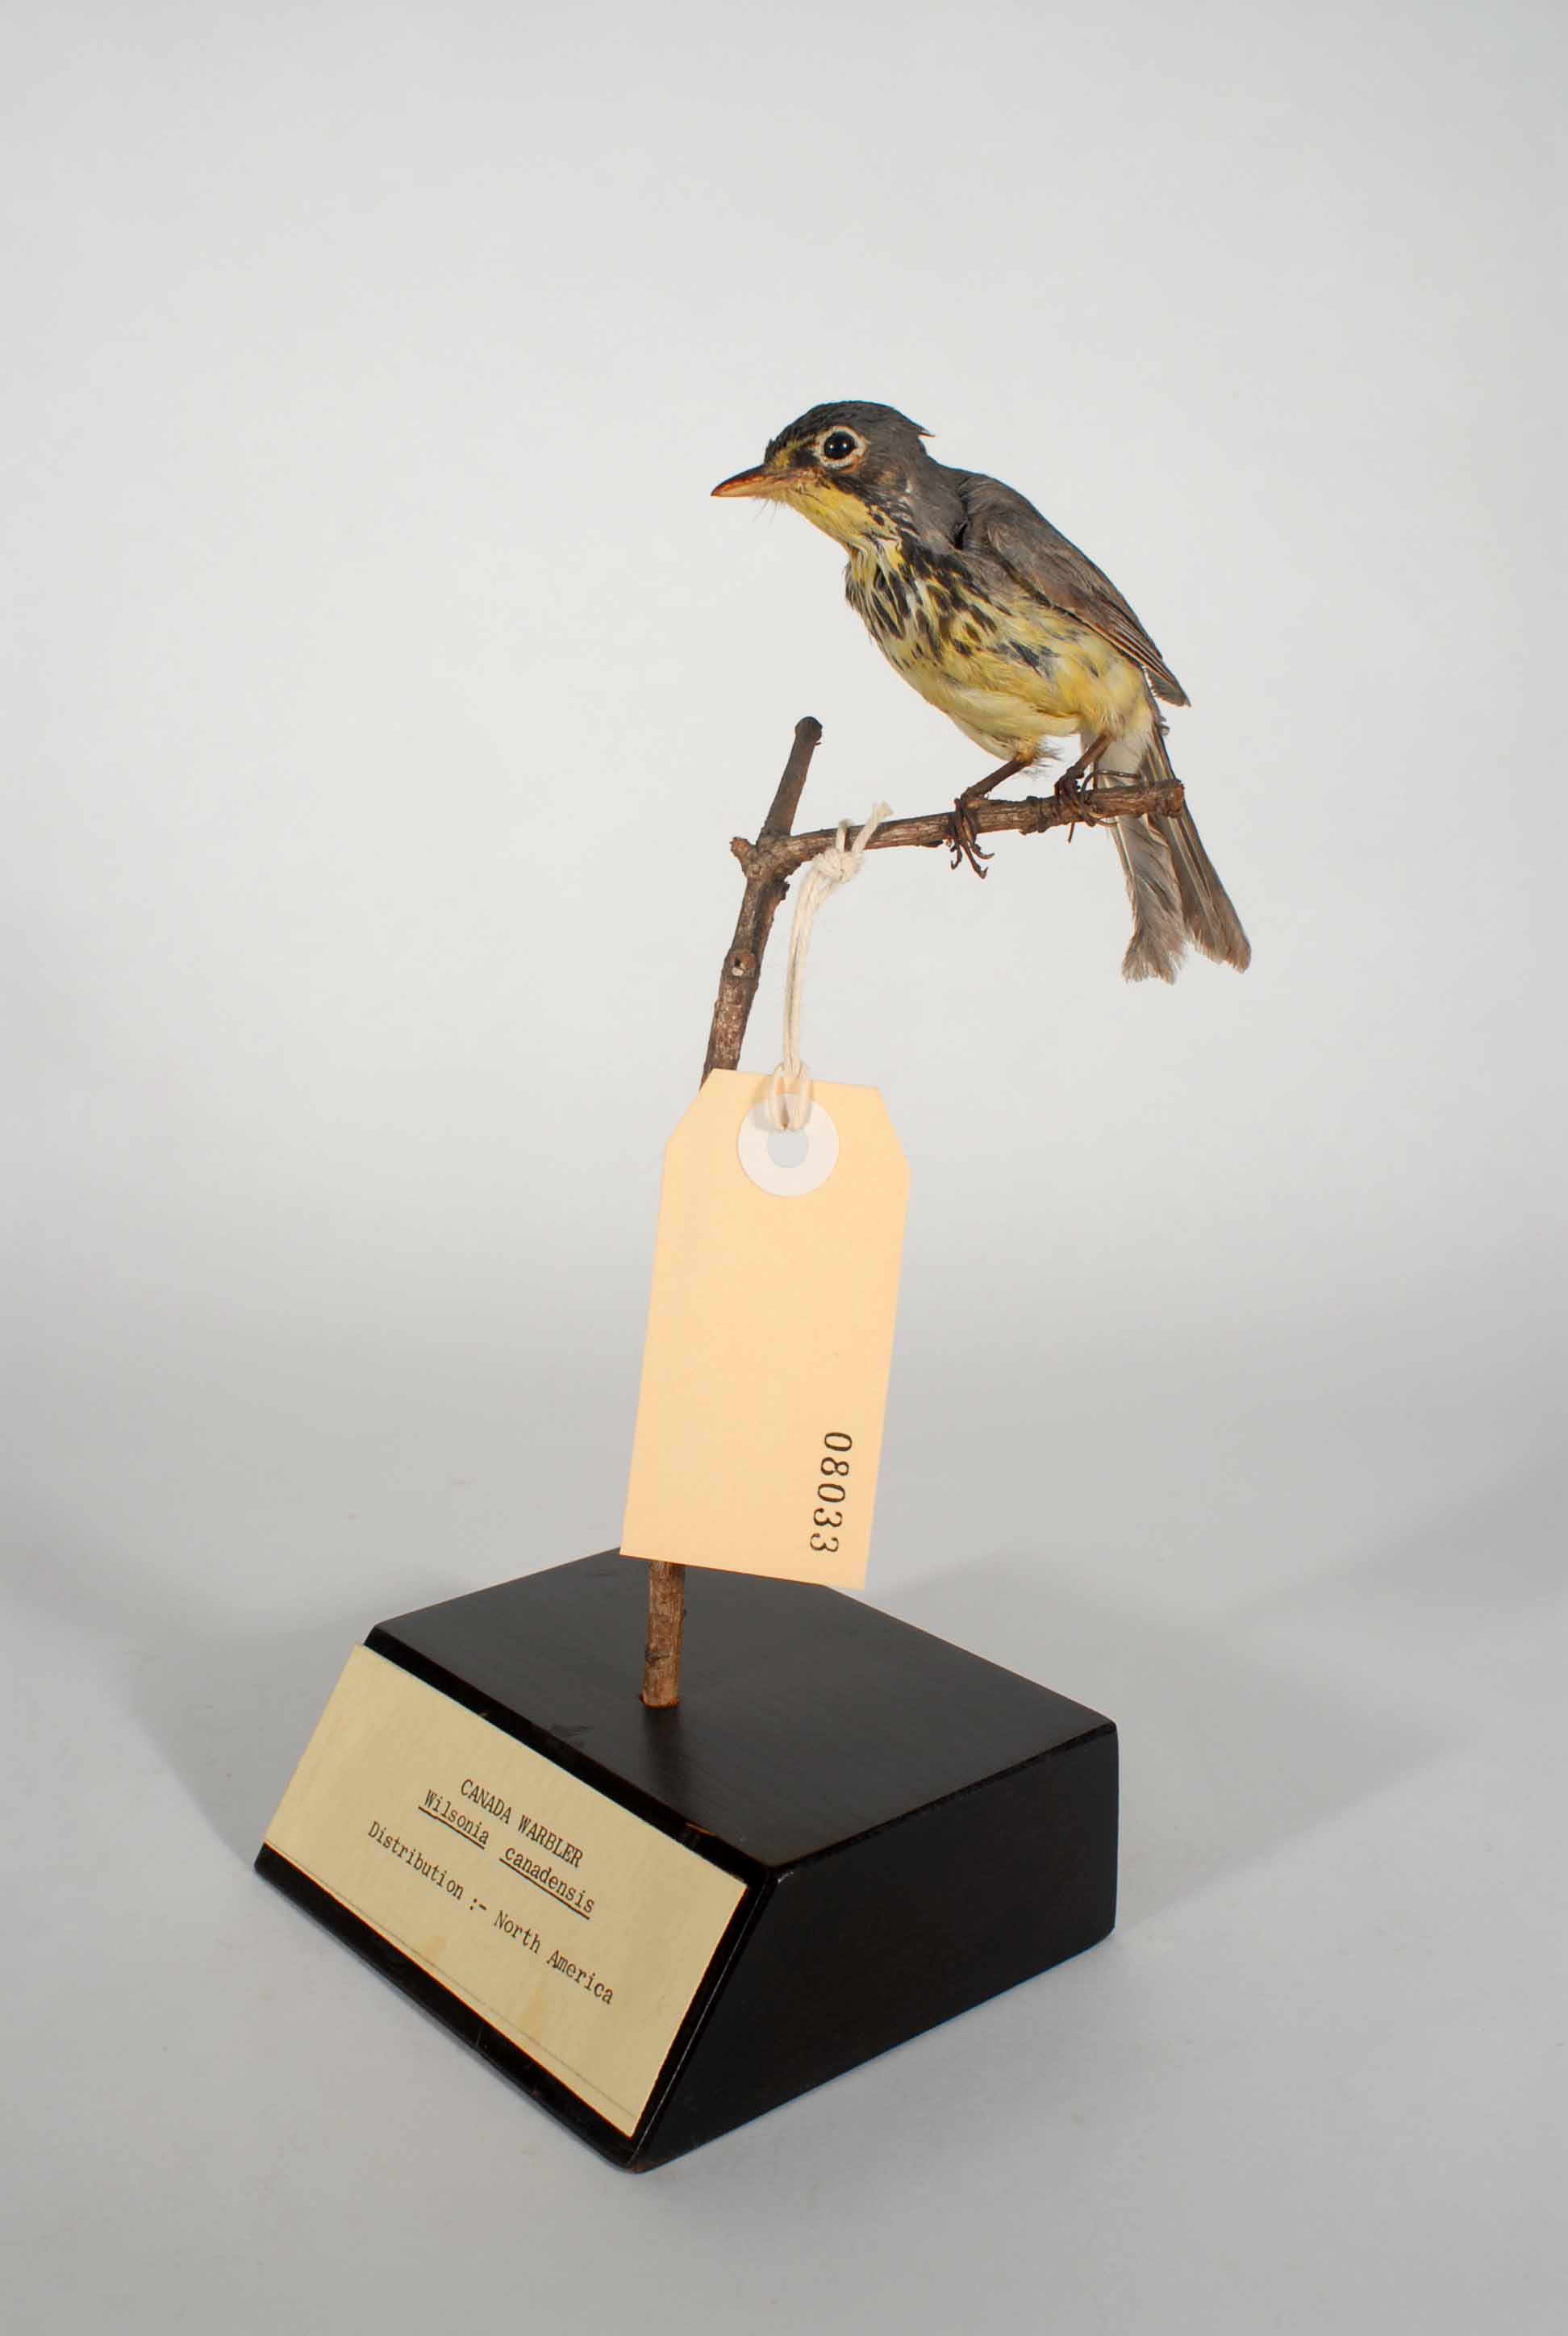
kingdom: Animalia
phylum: Chordata
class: Aves
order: Passeriformes
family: Parulidae
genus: Cardellina
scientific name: Cardellina canadensis
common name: Canada warbler
